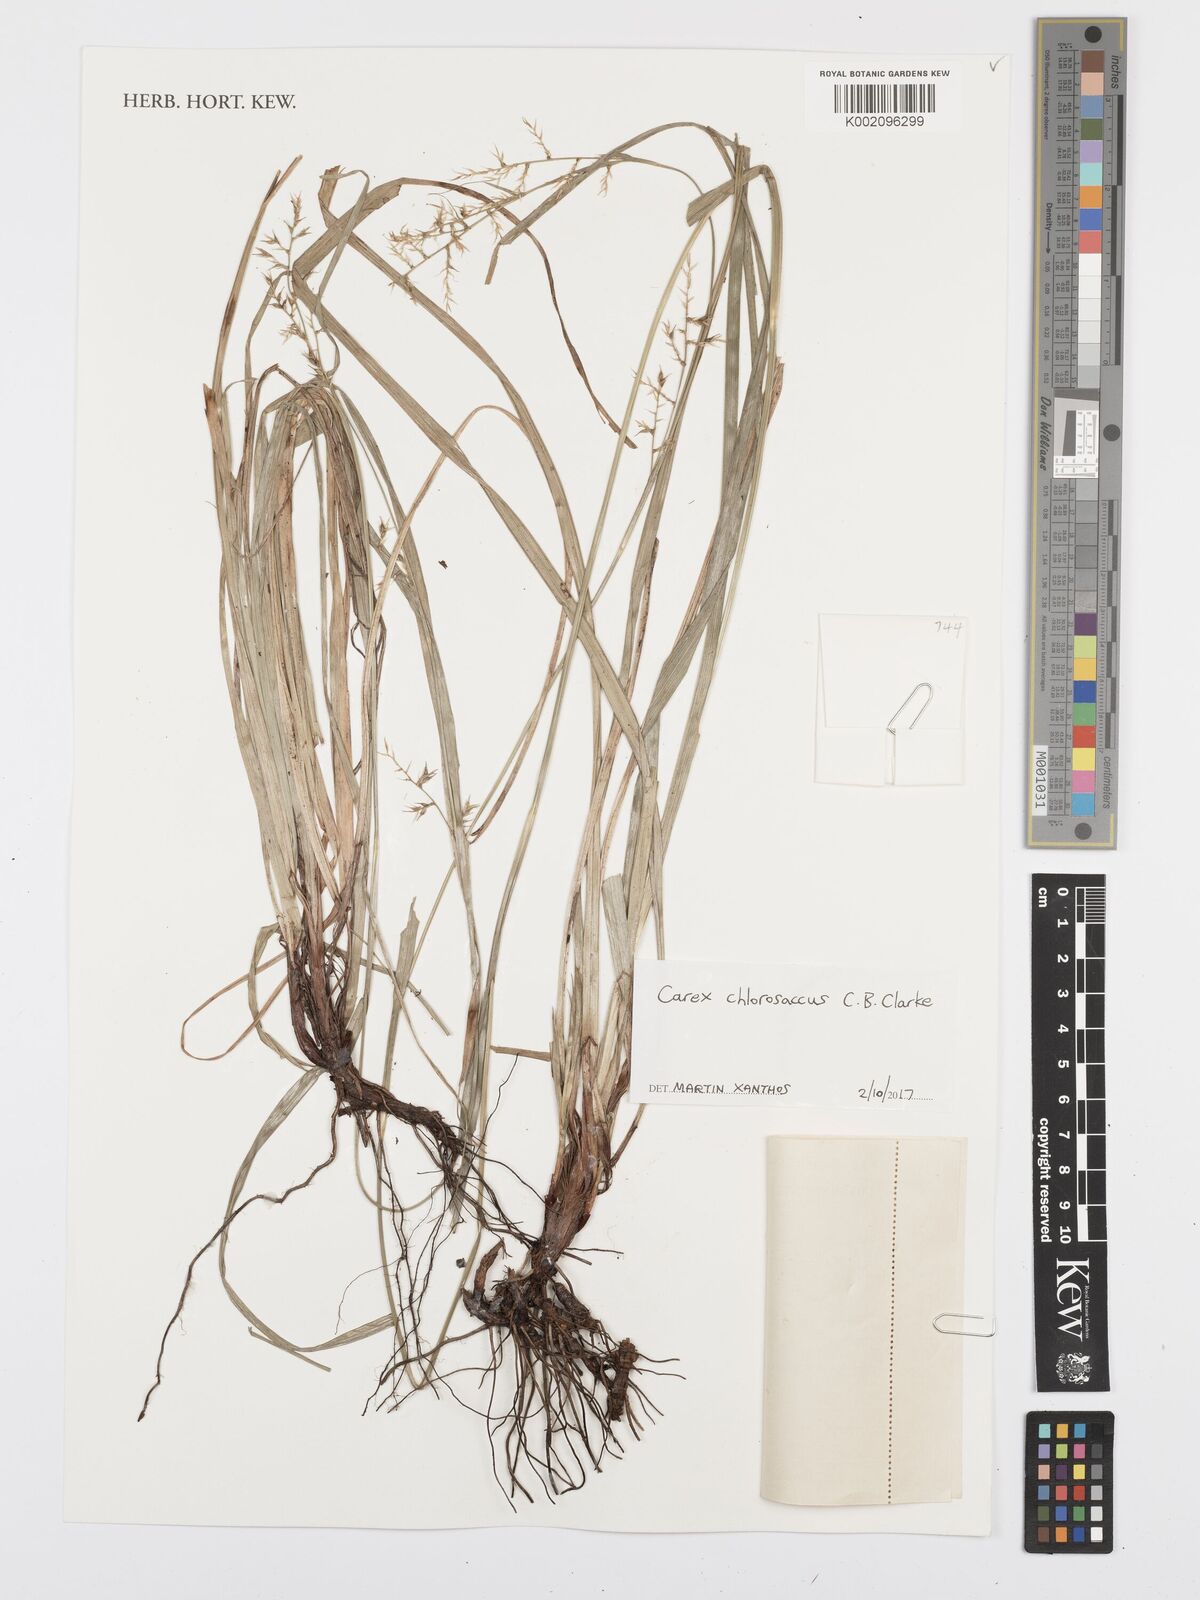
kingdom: Plantae
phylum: Tracheophyta
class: Liliopsida
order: Poales
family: Cyperaceae
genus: Carex
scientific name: Carex chlorosaccus
